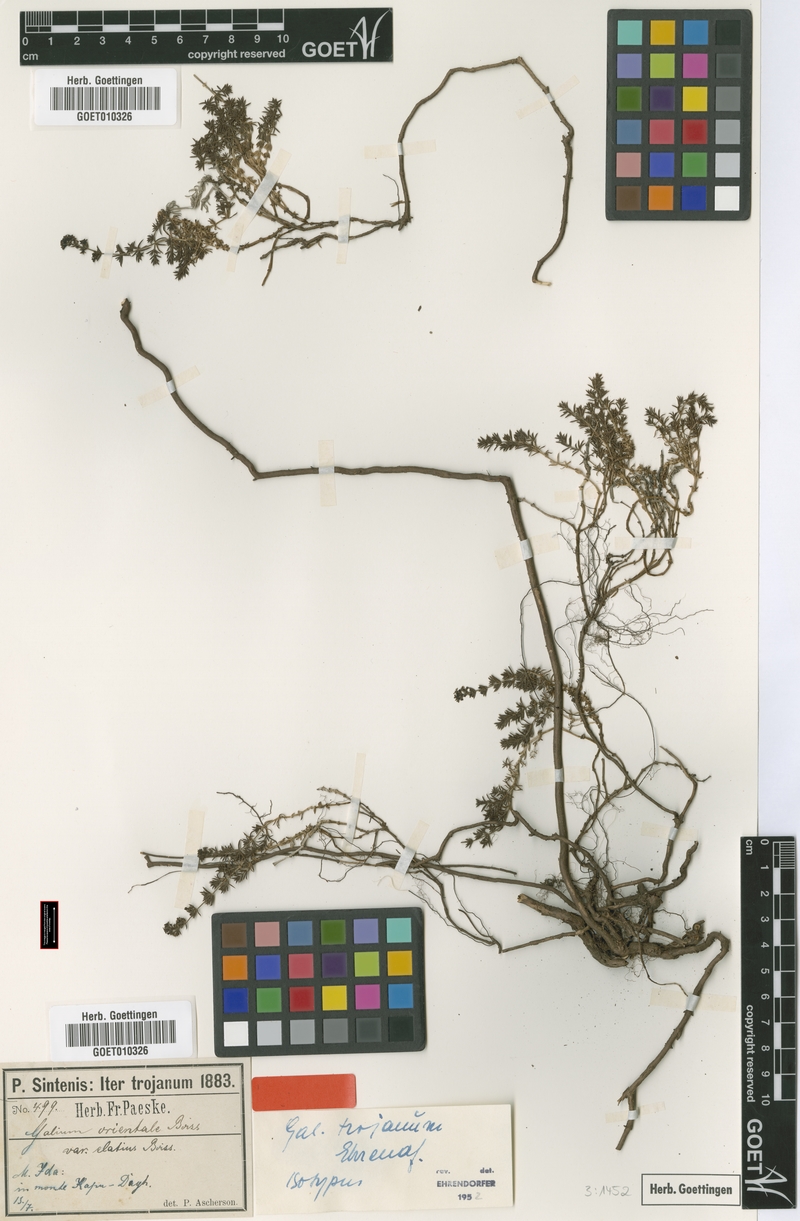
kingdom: Plantae
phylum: Tracheophyta
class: Magnoliopsida
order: Gentianales
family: Rubiaceae
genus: Galium
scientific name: Galium trojanum
